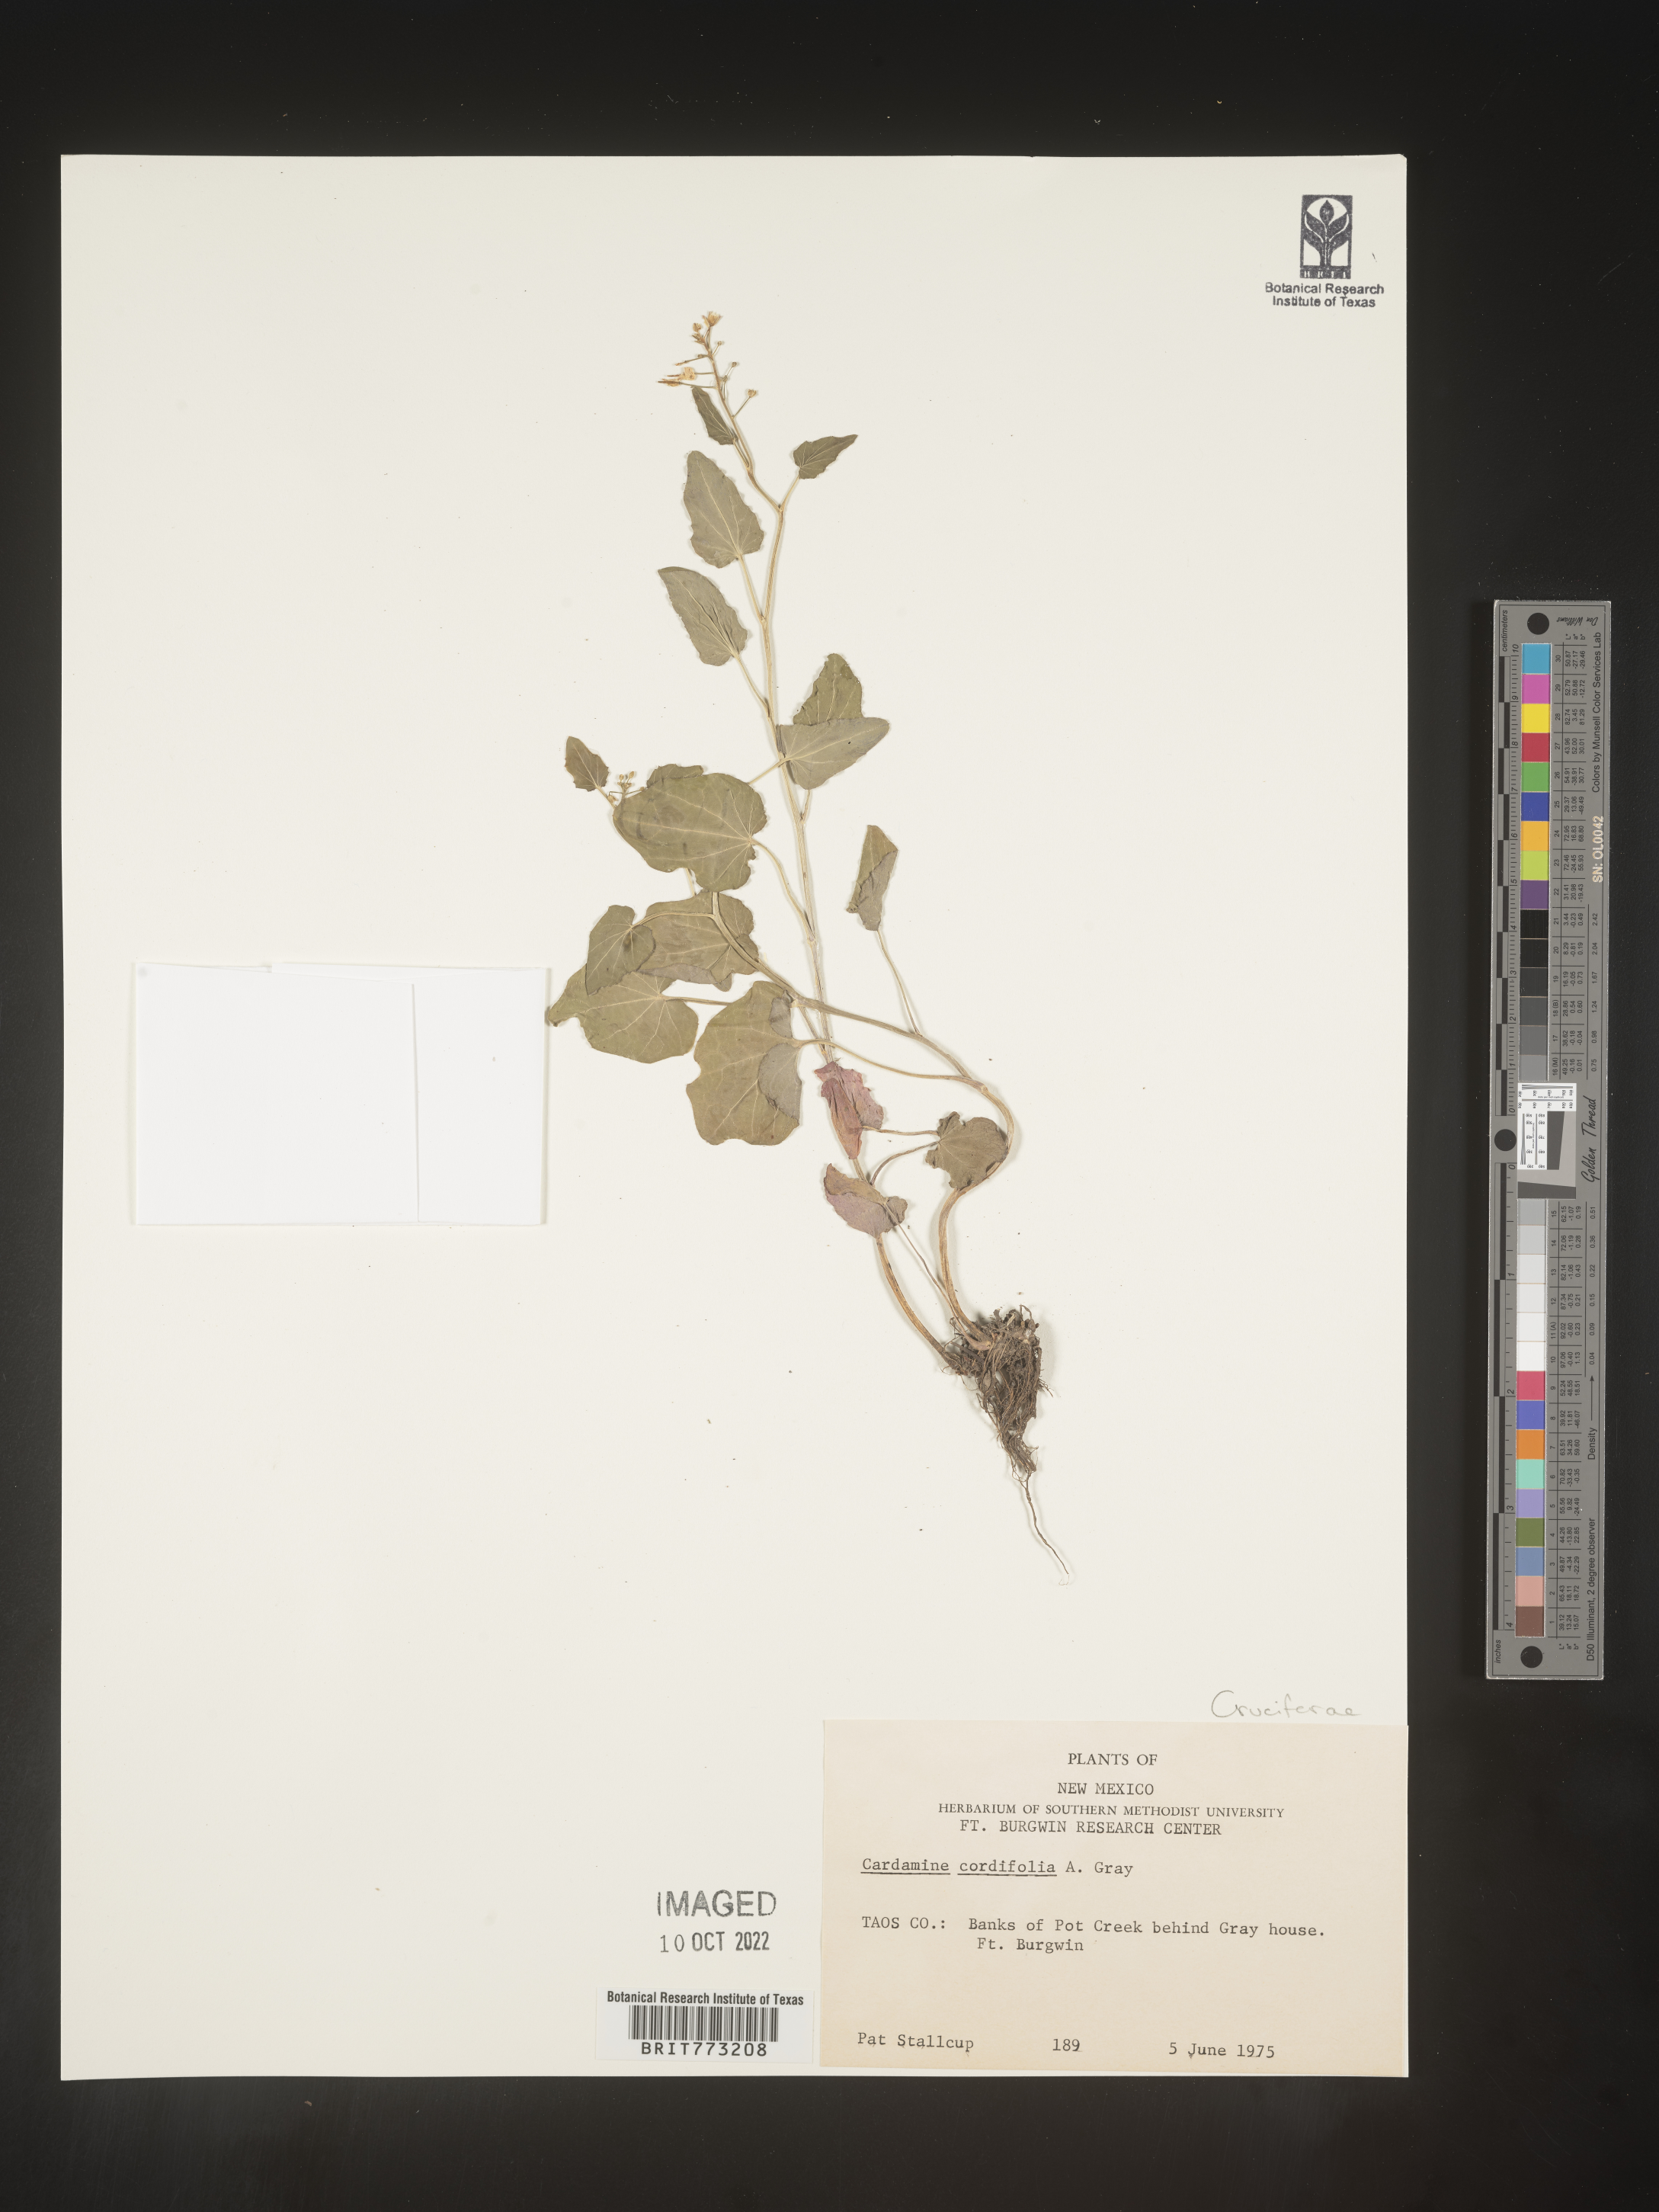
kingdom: Plantae
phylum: Tracheophyta
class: Magnoliopsida
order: Brassicales
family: Brassicaceae
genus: Cardamine
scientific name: Cardamine
